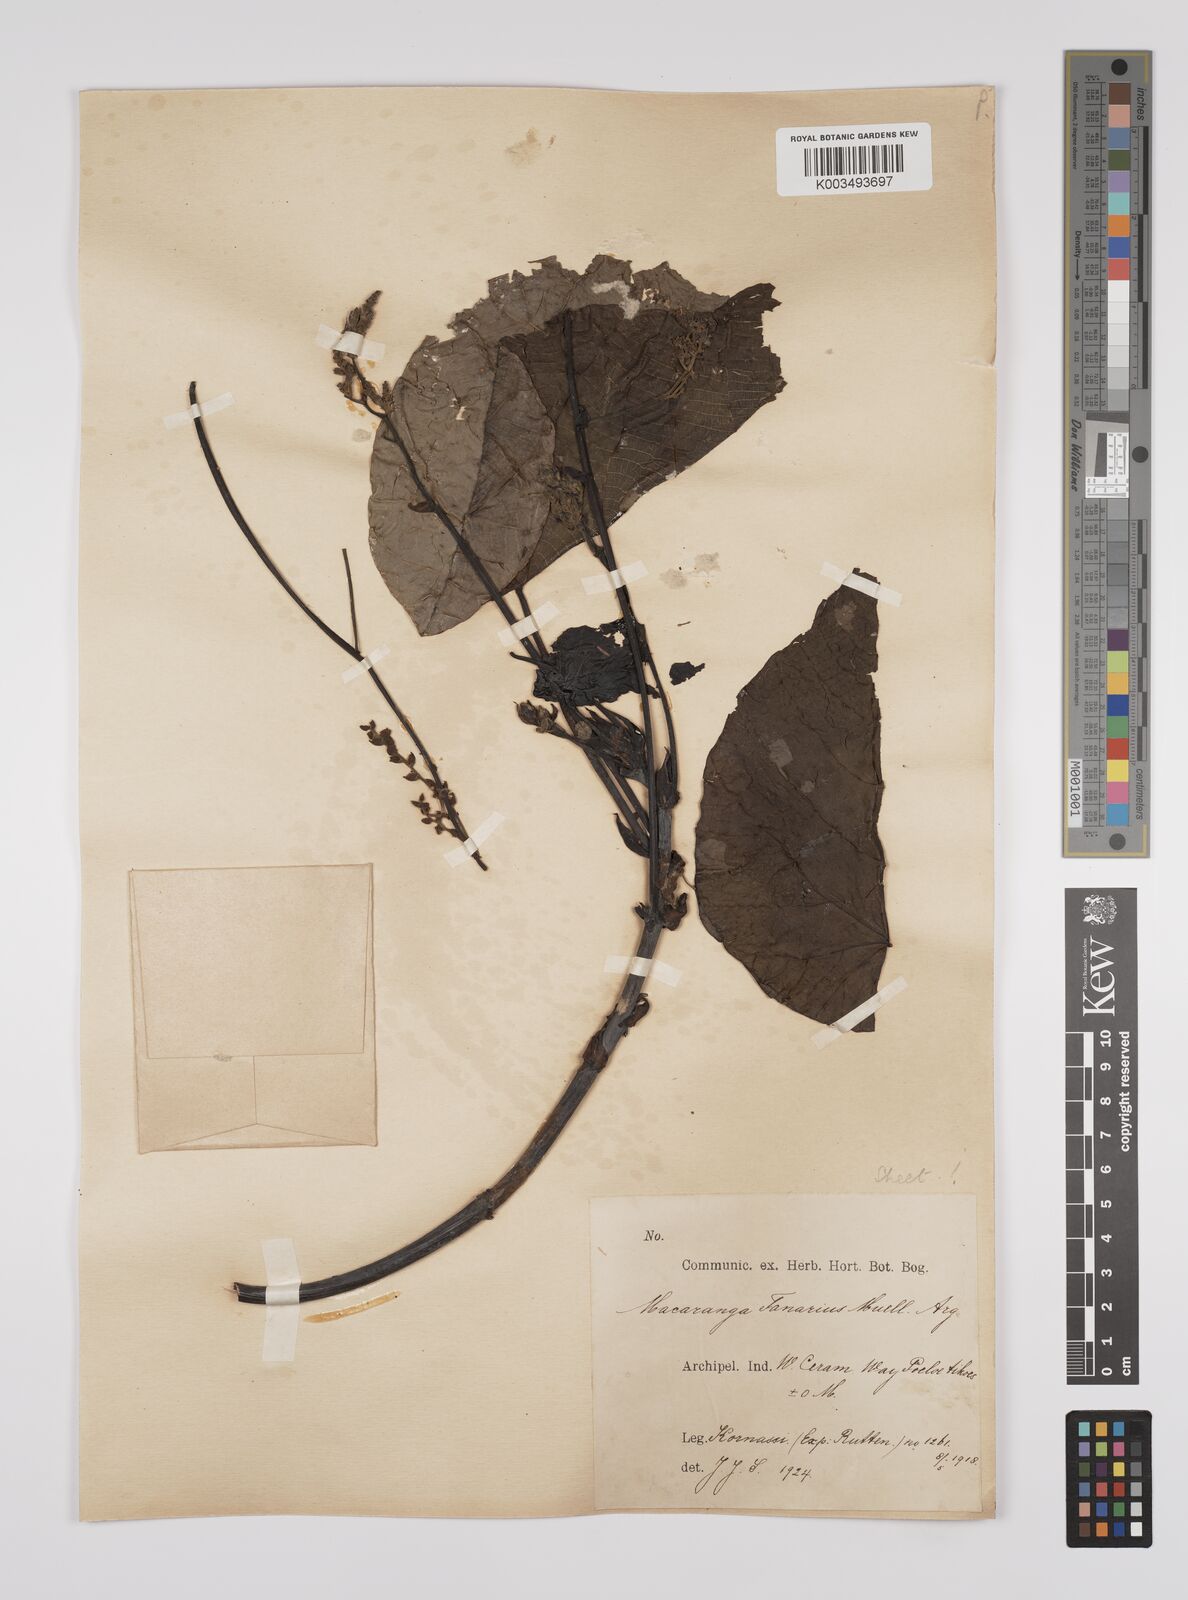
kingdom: Plantae
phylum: Tracheophyta
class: Magnoliopsida
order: Malpighiales
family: Euphorbiaceae
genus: Macaranga
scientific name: Macaranga tanarius
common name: Parasol leaf tree
